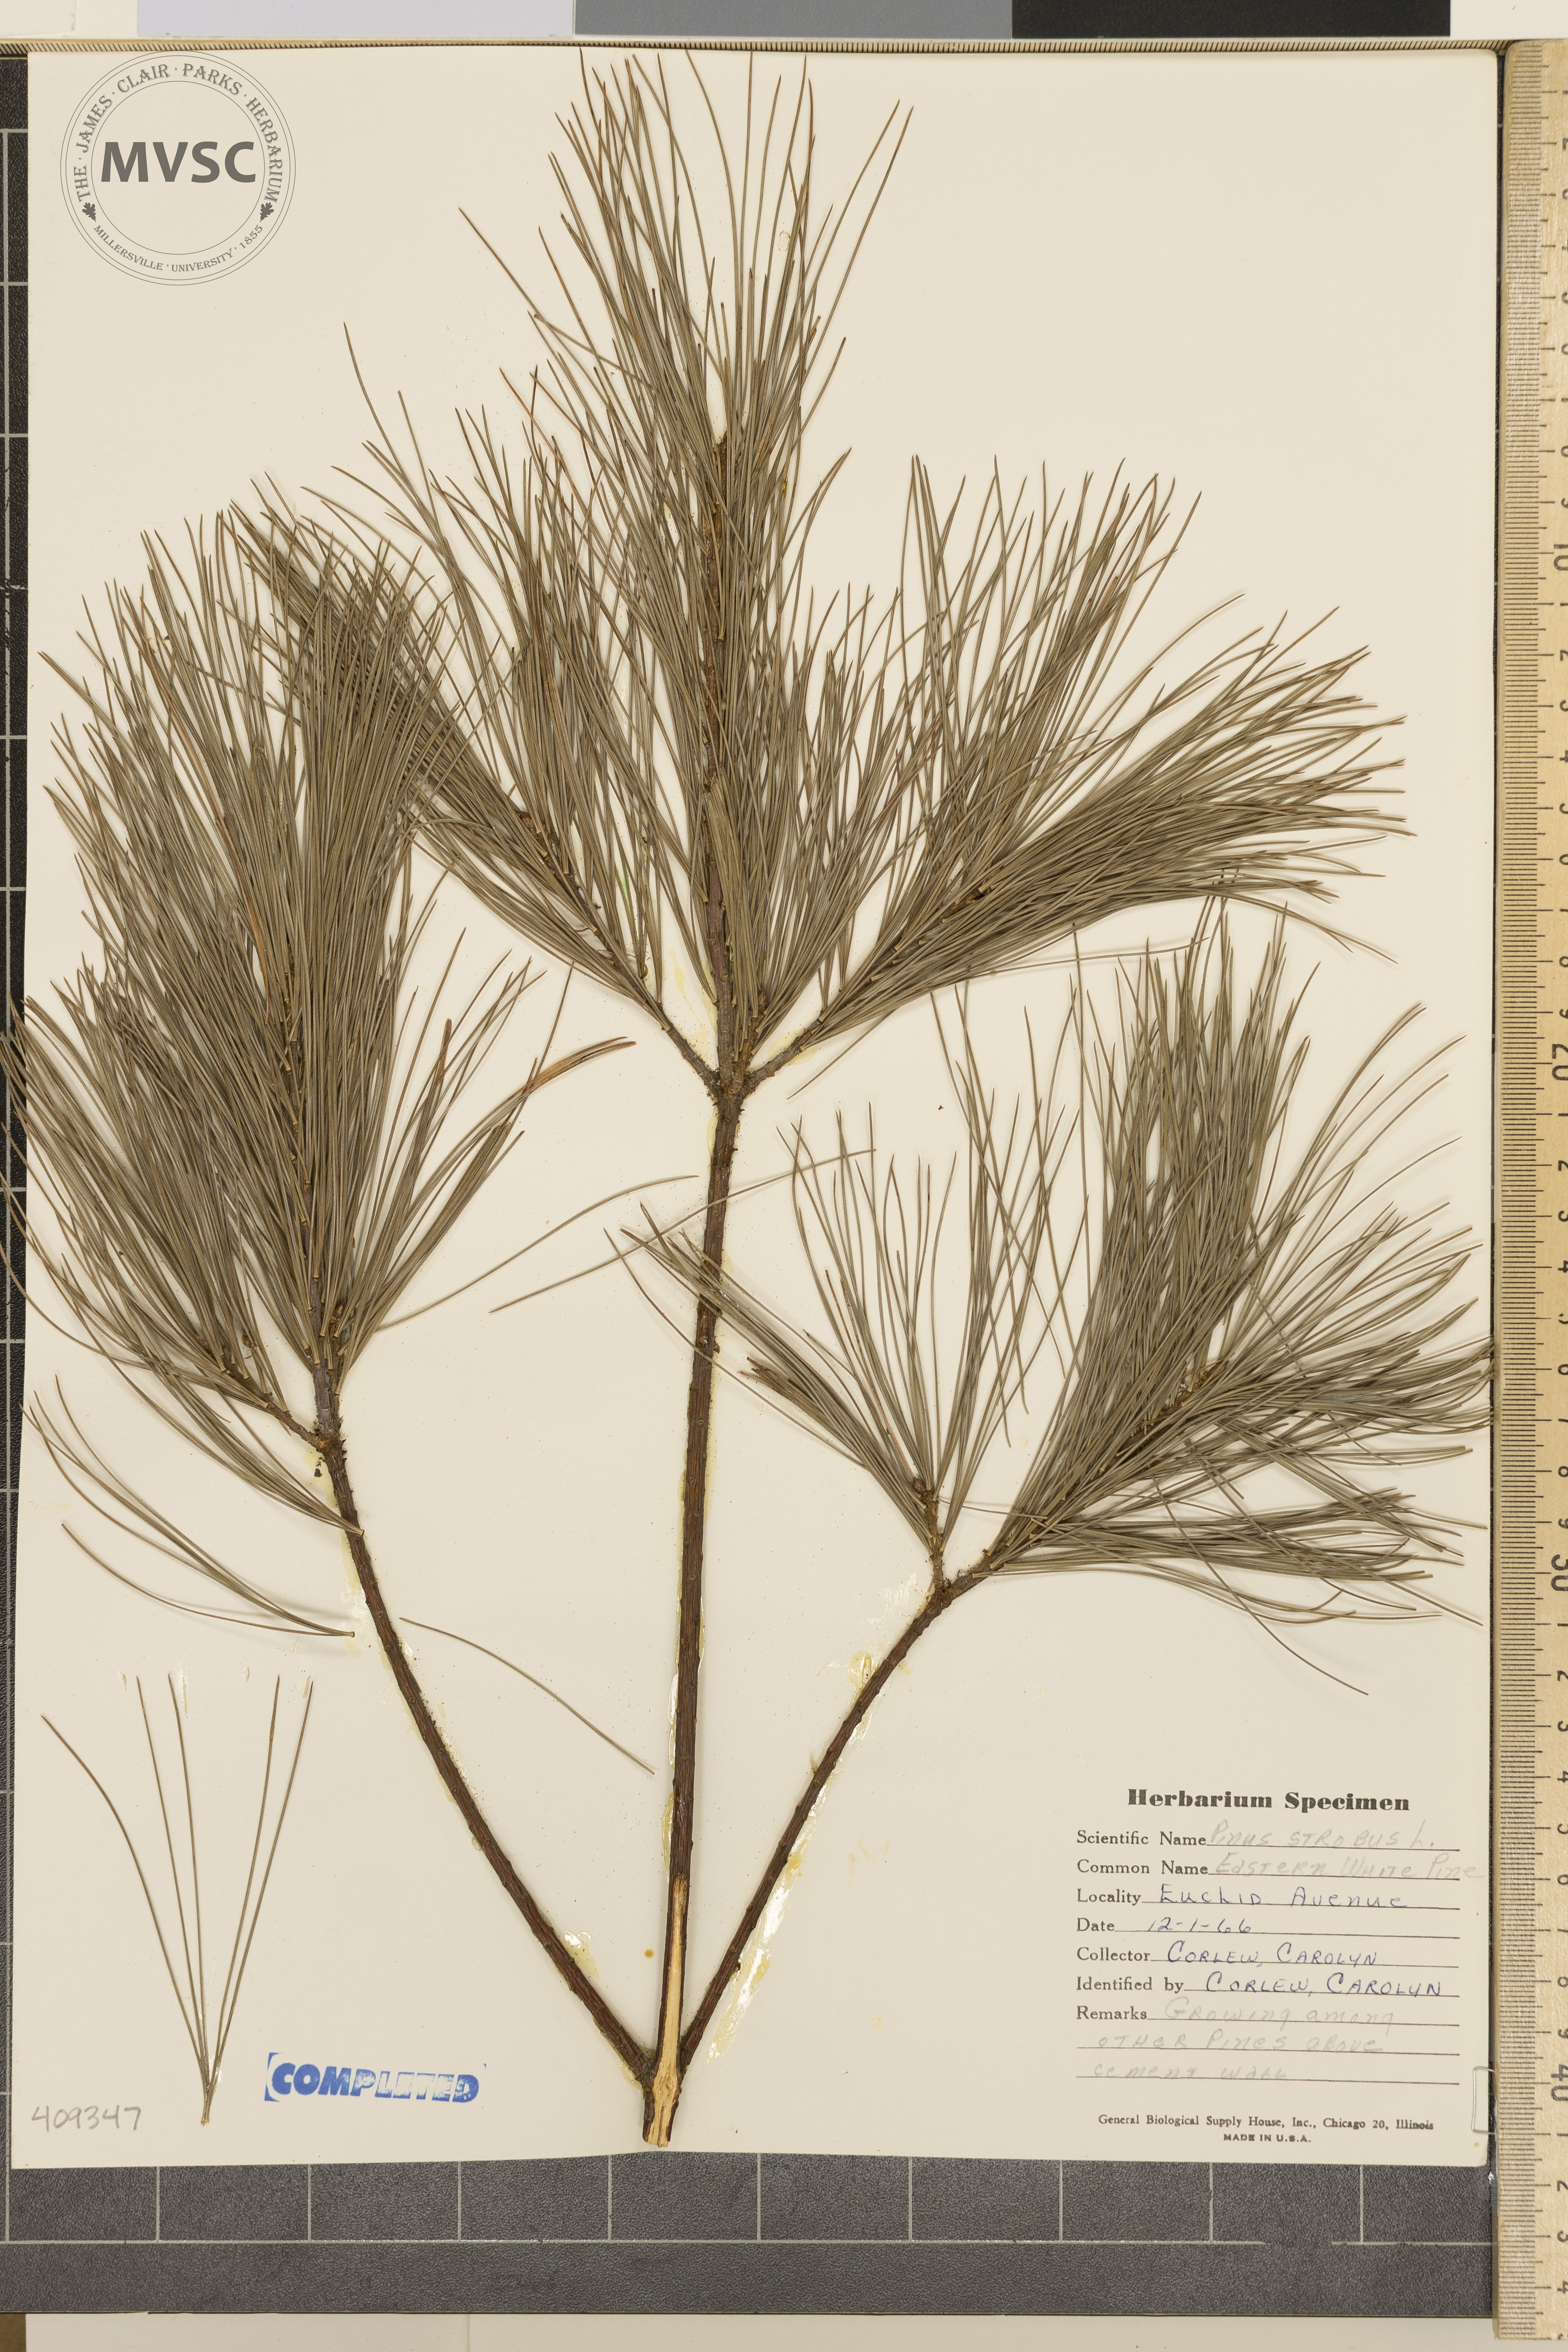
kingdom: Plantae
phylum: Tracheophyta
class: Pinopsida
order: Pinales
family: Pinaceae
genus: Pinus
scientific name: Pinus strobus
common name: Weymouth pine
